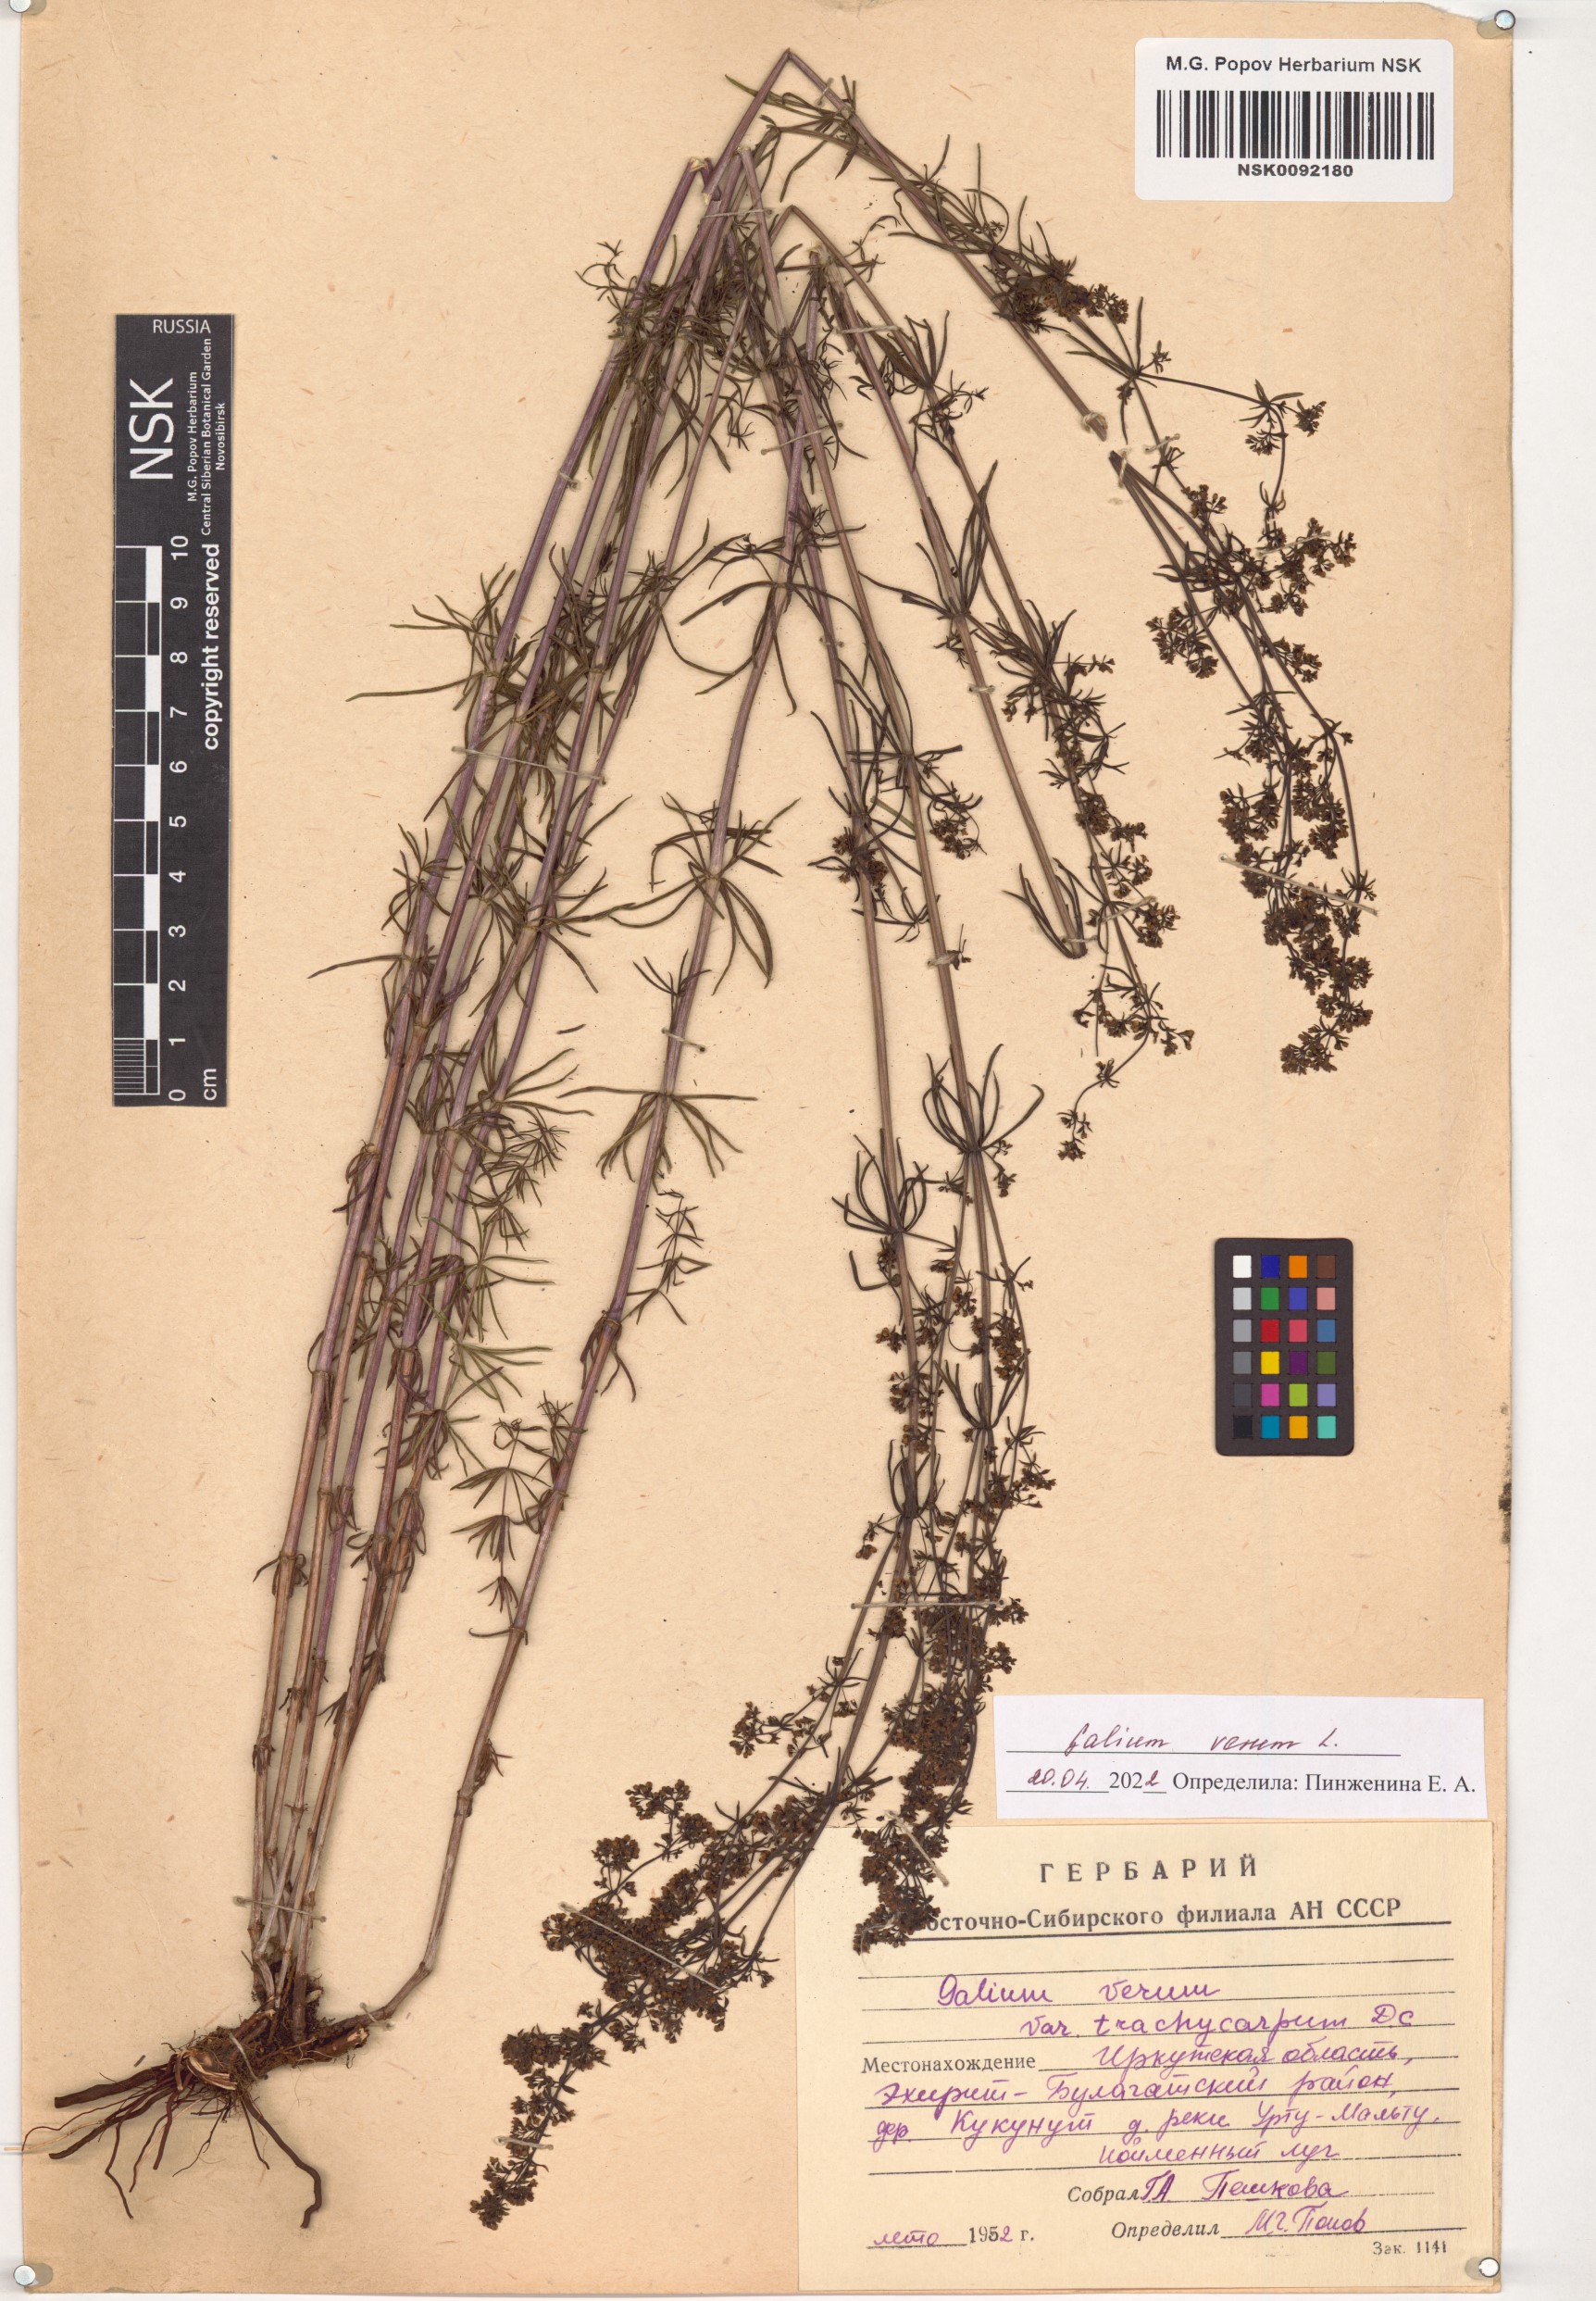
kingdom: Plantae
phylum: Tracheophyta
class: Magnoliopsida
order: Gentianales
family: Rubiaceae
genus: Galium
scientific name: Galium verum
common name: Lady's bedstraw
